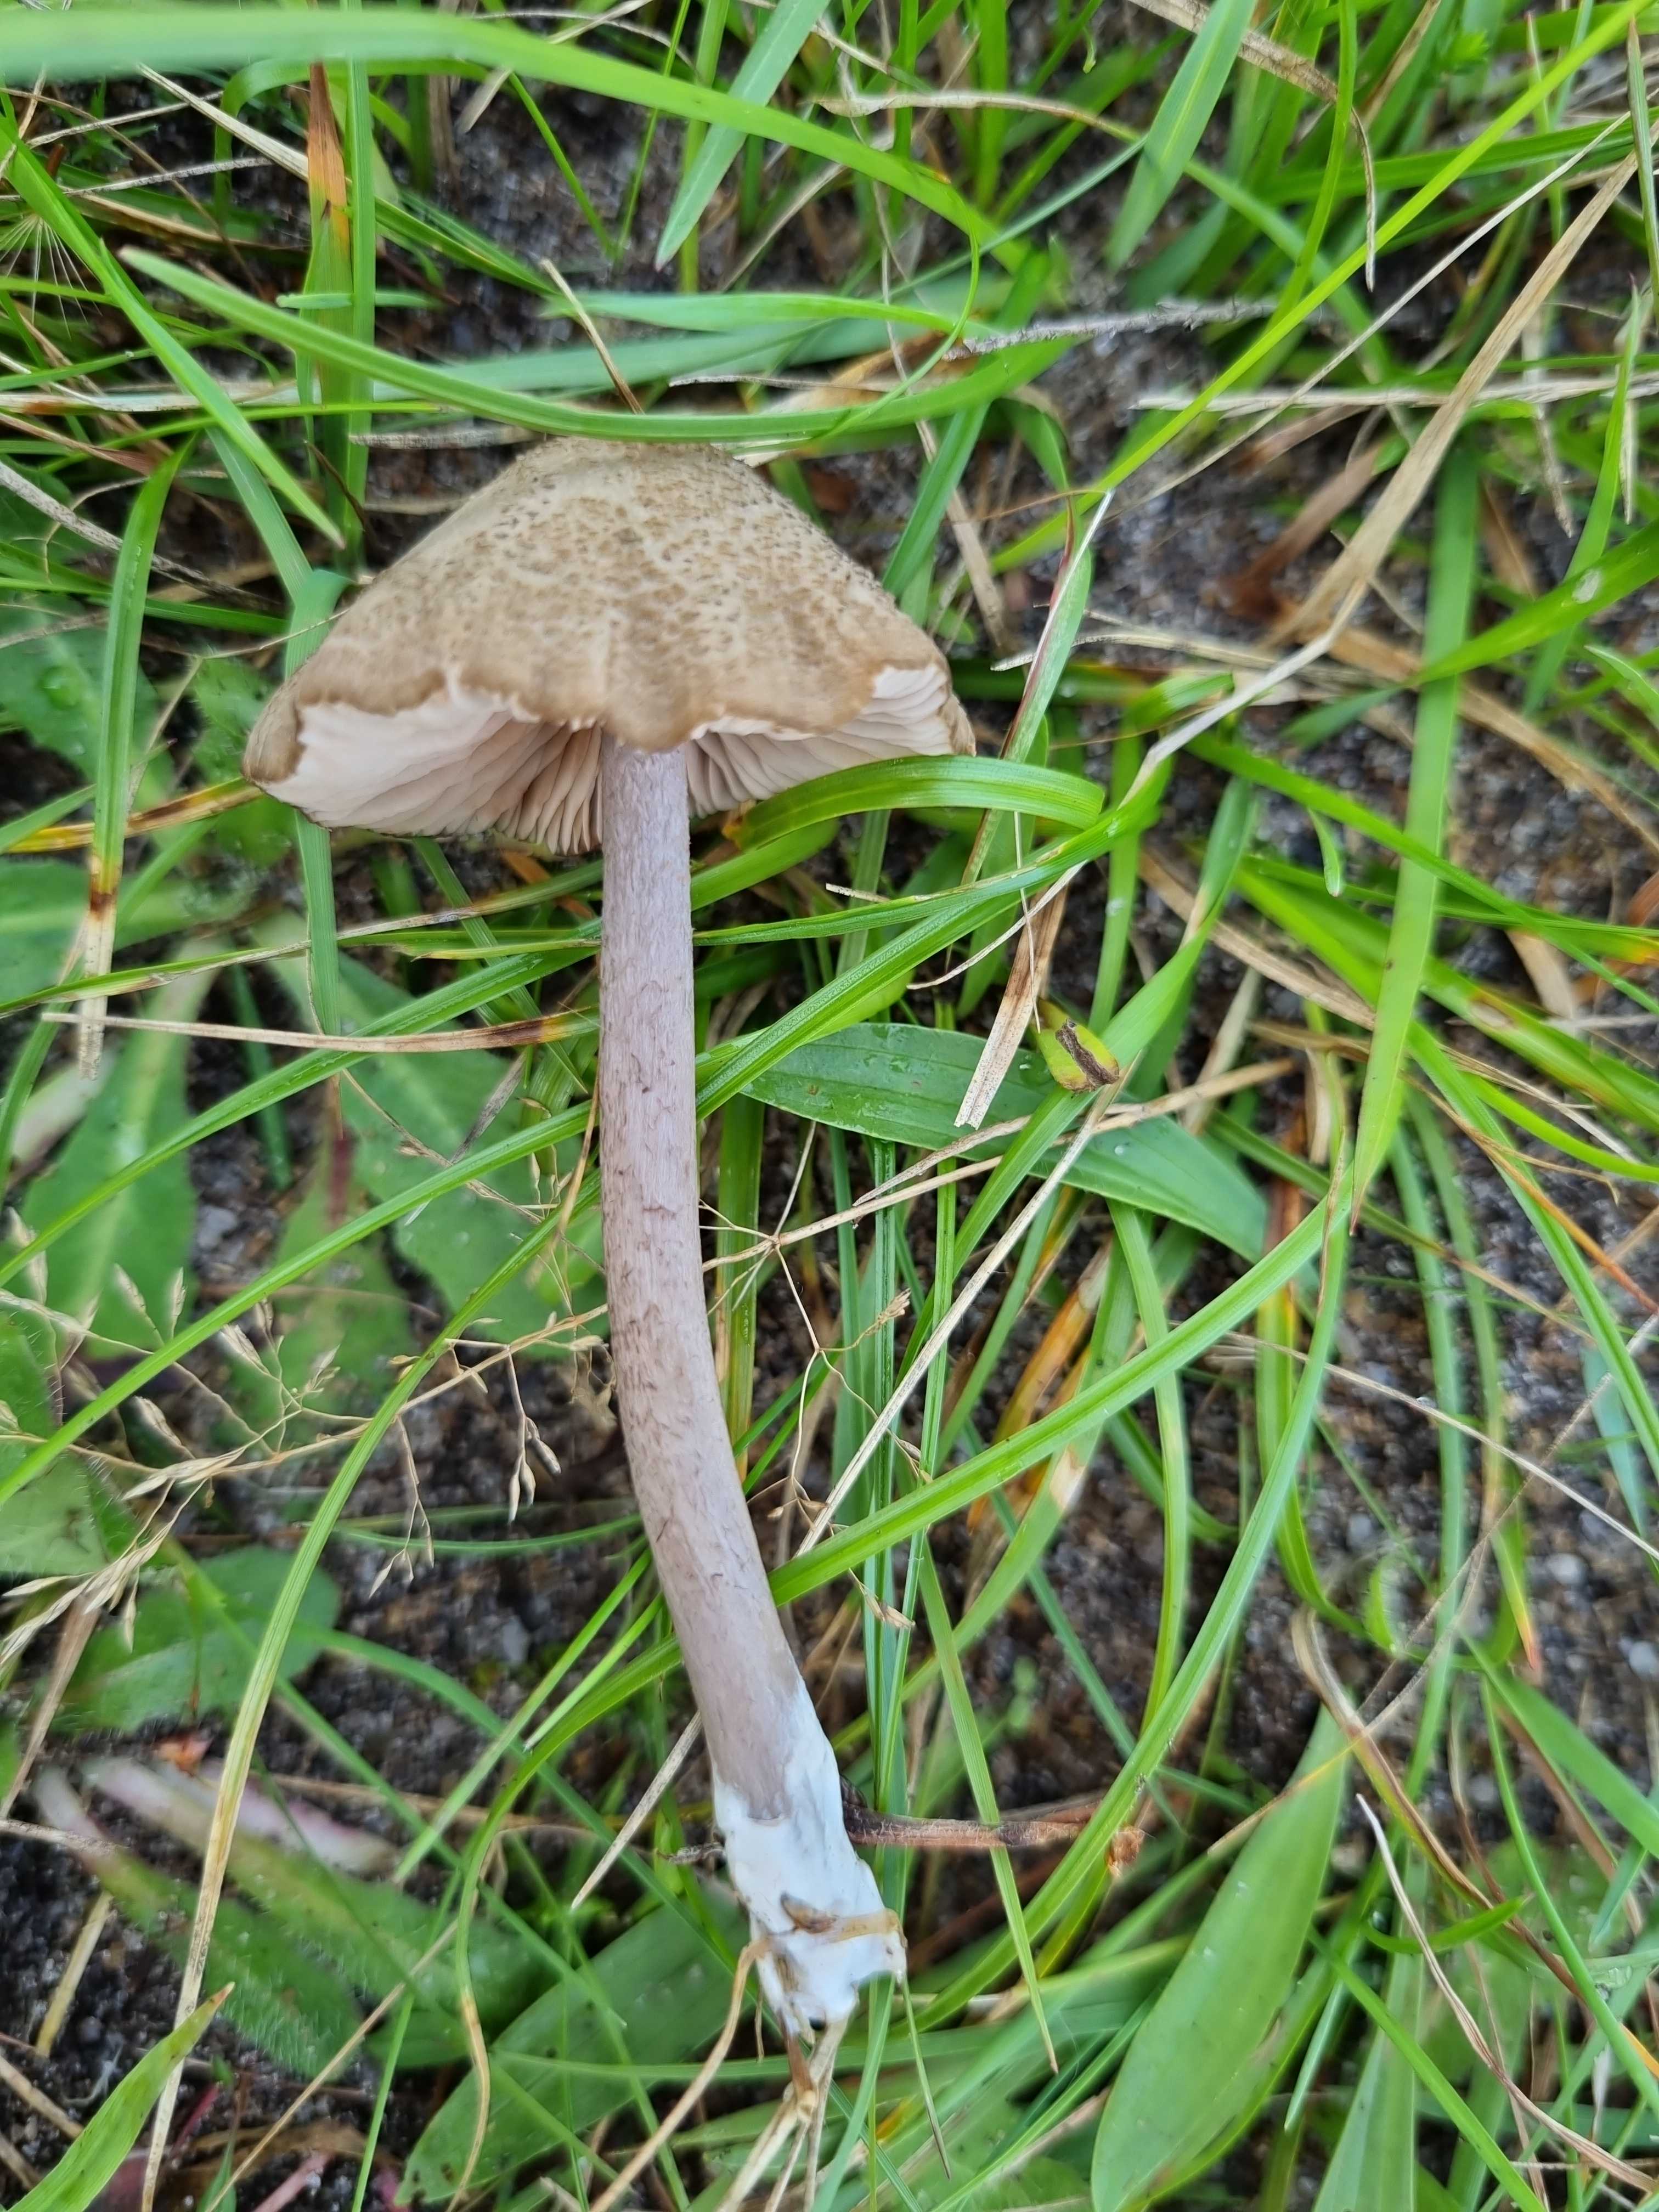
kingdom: Fungi
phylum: Basidiomycota
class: Agaricomycetes
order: Agaricales
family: Entolomataceae
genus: Entoloma
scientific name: Entoloma griseocyaneum
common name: gråblå rødblad
